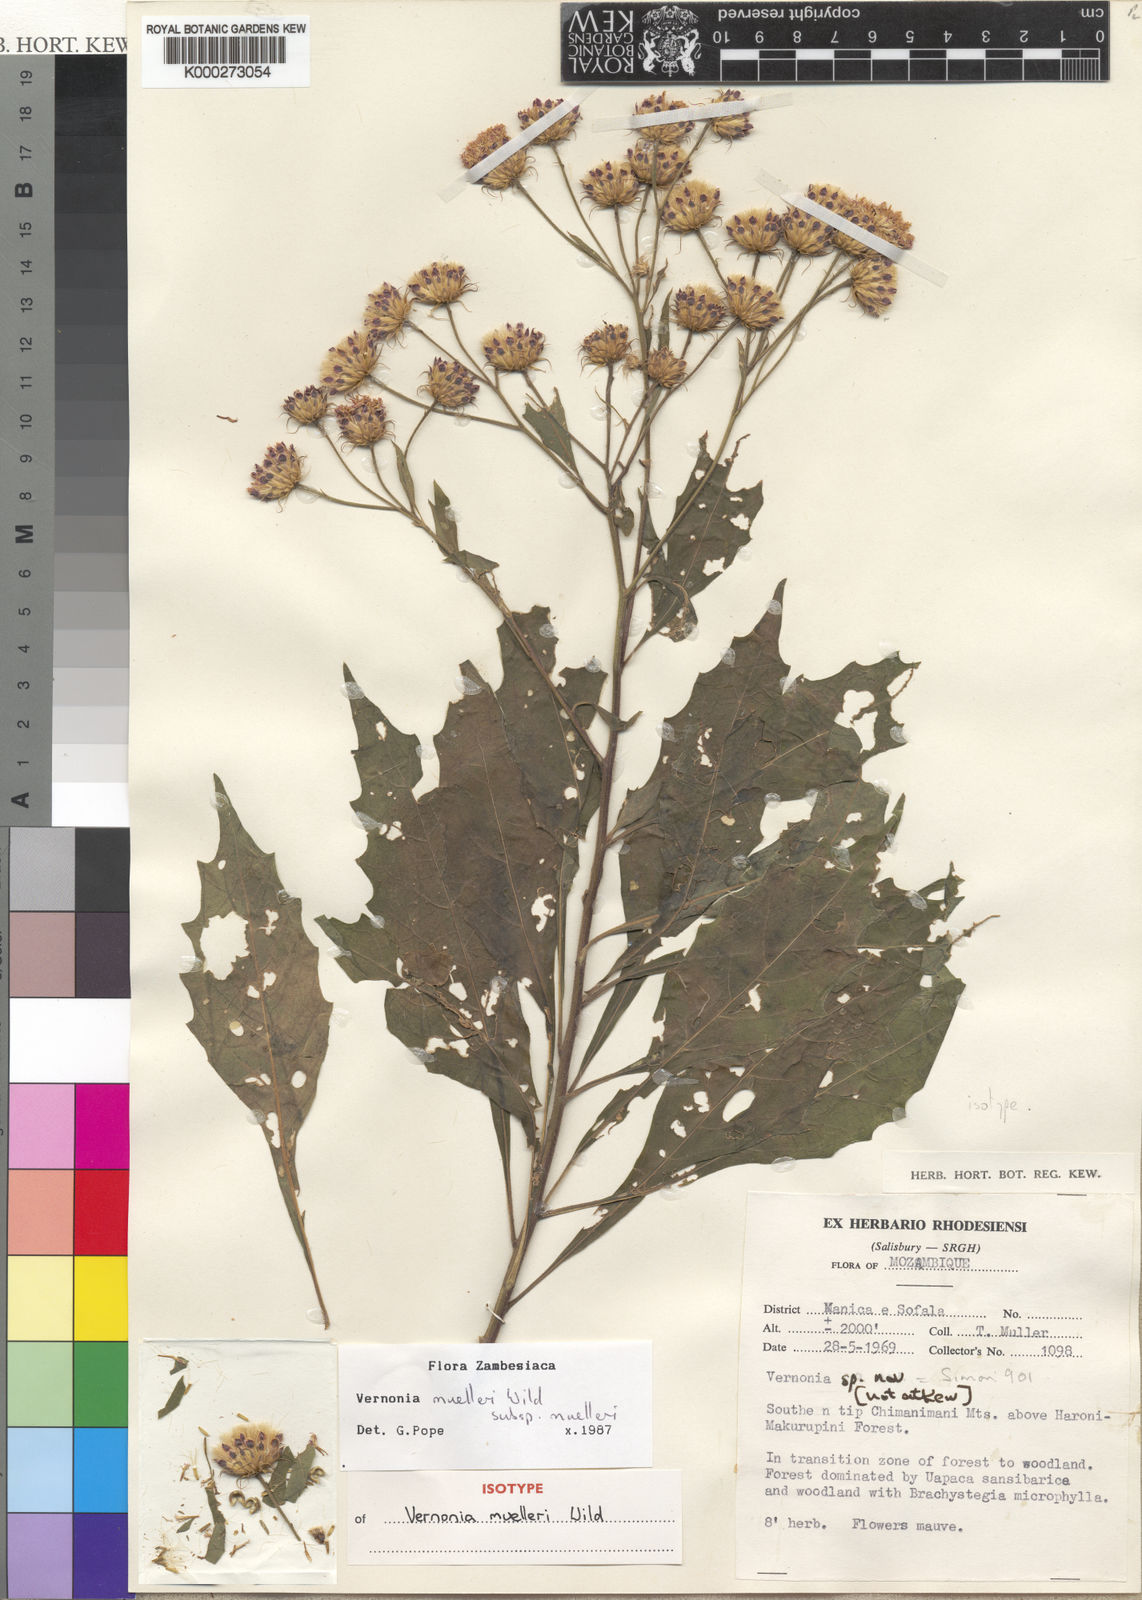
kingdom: Plantae
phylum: Tracheophyta
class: Magnoliopsida
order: Asterales
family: Asteraceae
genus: Vernonia
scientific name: Vernonia muelleri
